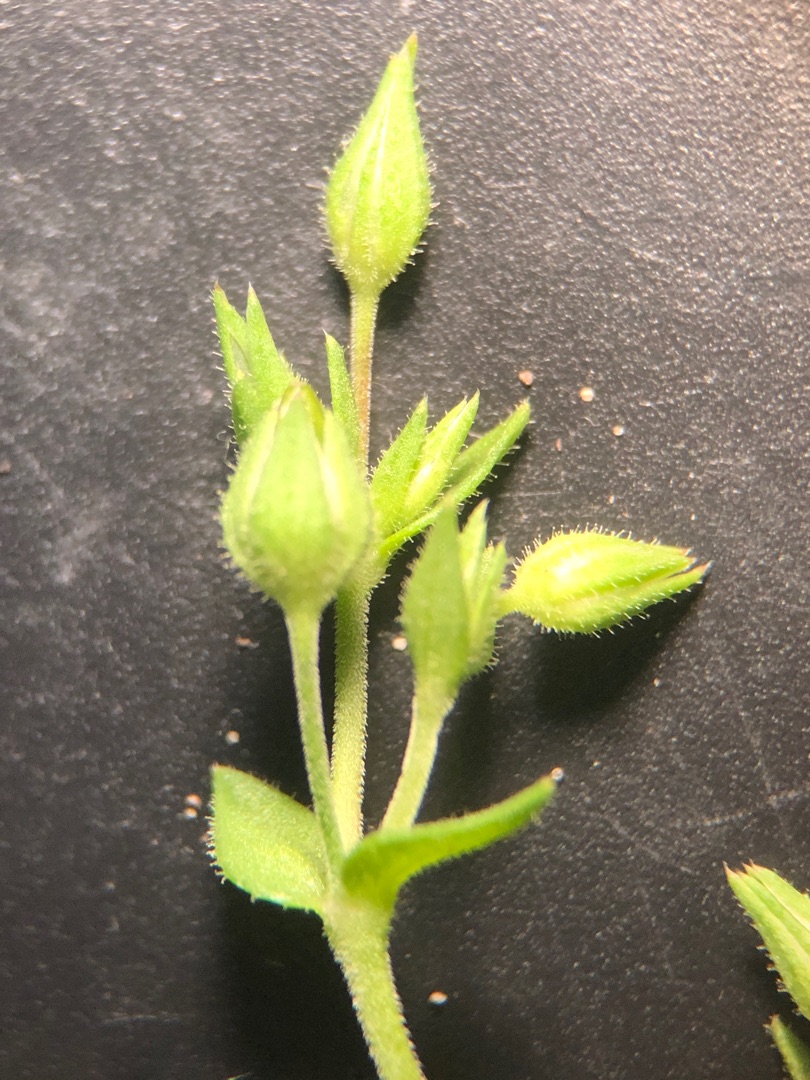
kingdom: Plantae
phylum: Tracheophyta
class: Magnoliopsida
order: Caryophyllales
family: Caryophyllaceae
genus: Arenaria
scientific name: Arenaria serpyllifolia
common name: Almindelig markarve
